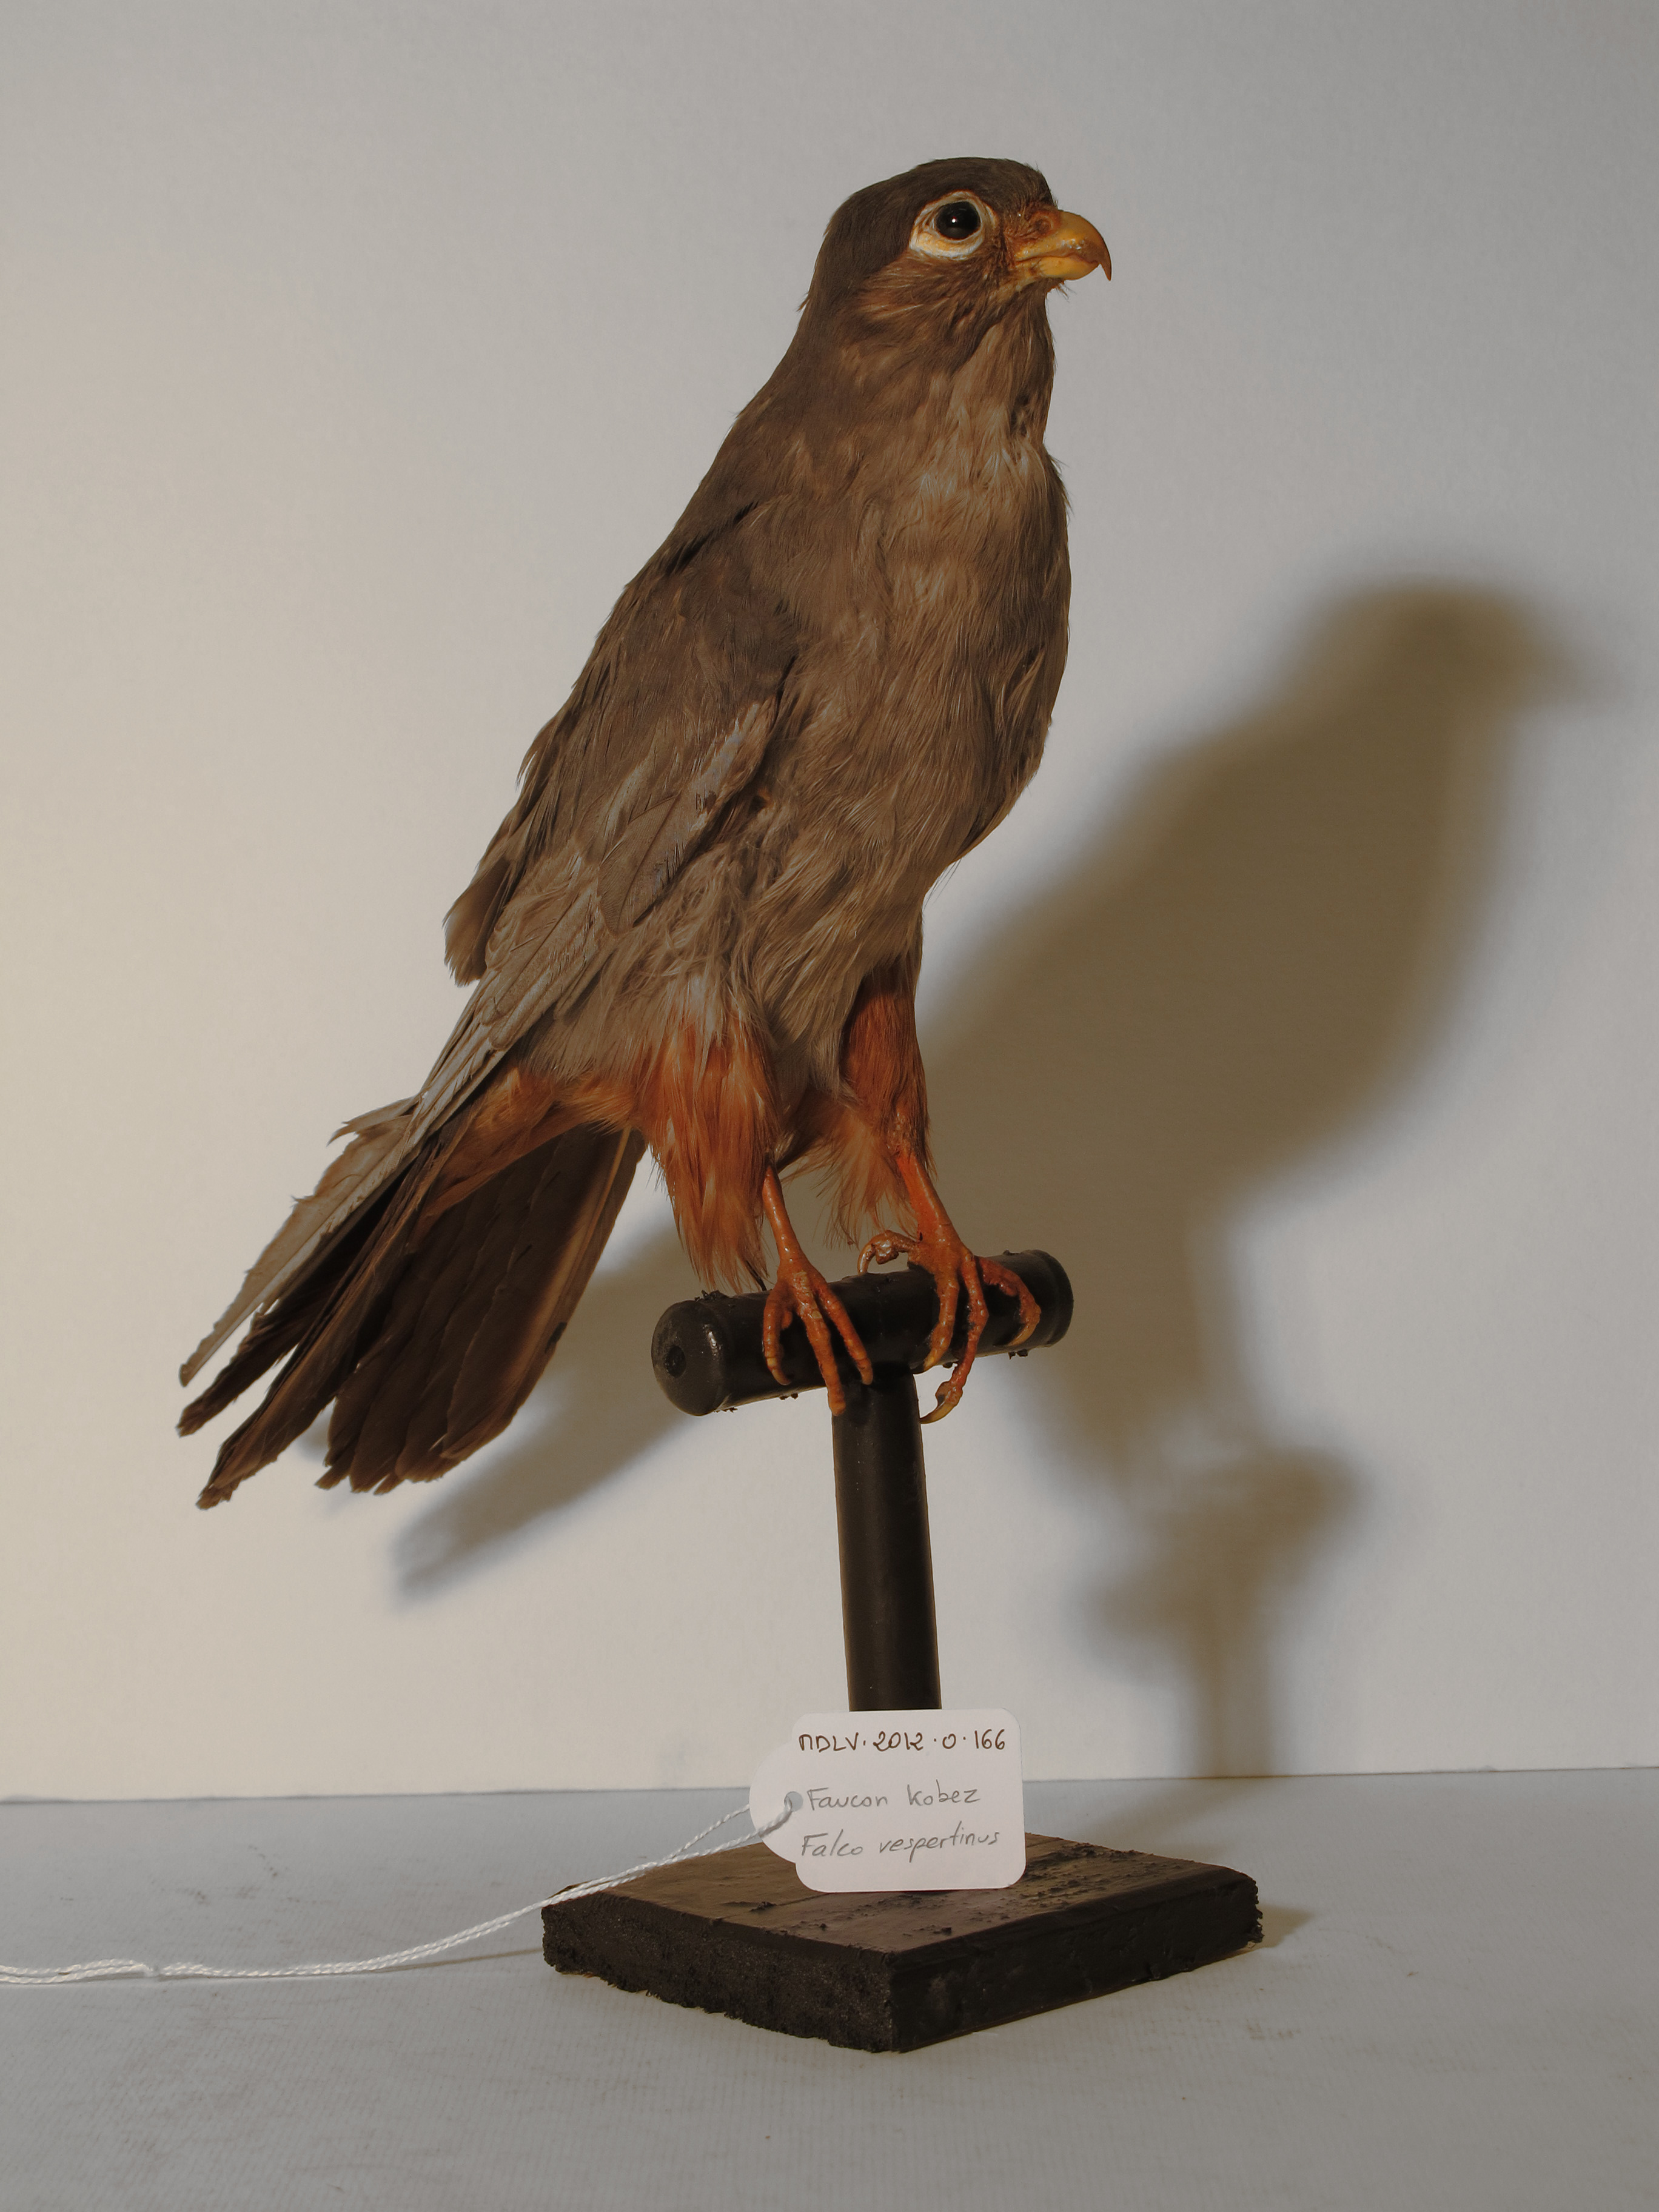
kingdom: Animalia
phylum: Chordata
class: Aves
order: Falconiformes
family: Falconidae
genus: Falco
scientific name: Falco vespertinus
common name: Red-footed Falcon
